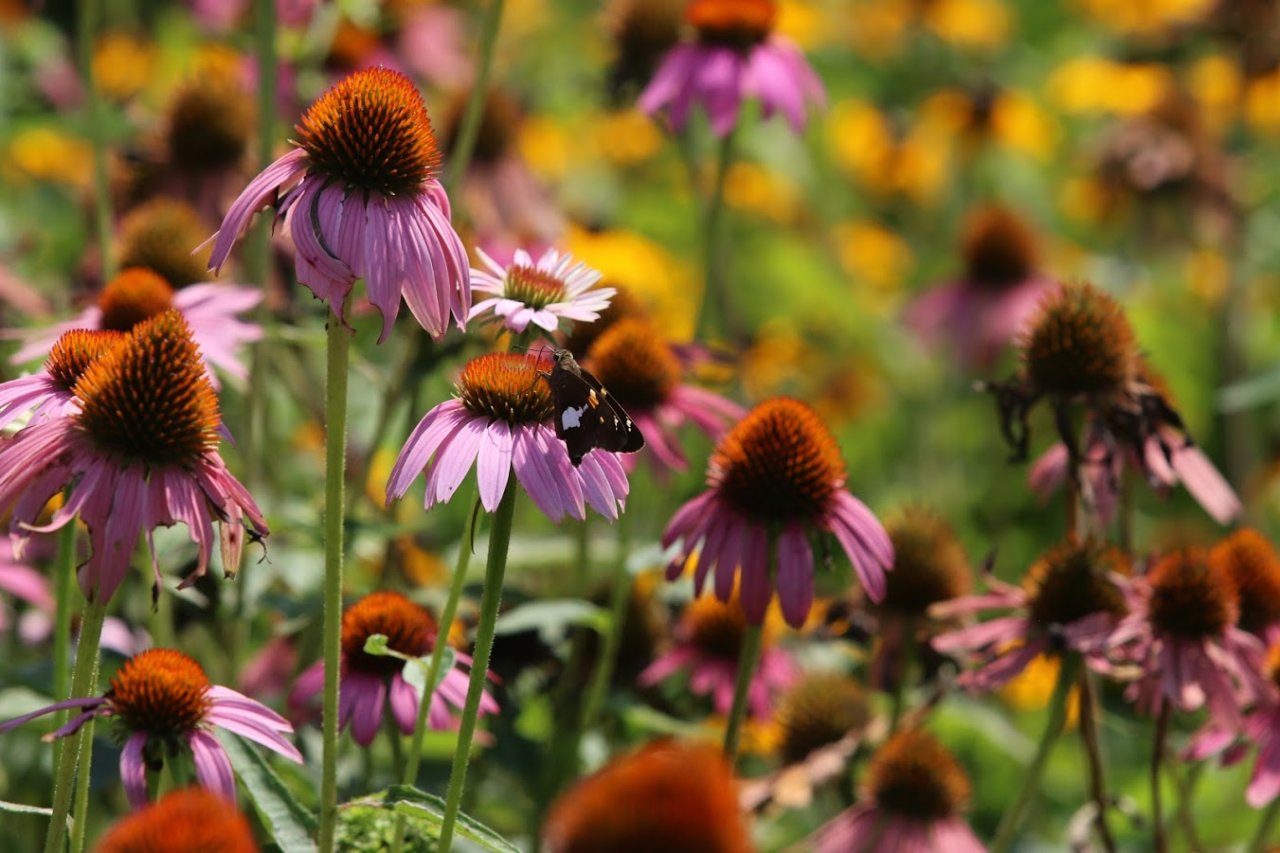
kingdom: Animalia
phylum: Arthropoda
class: Insecta
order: Lepidoptera
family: Hesperiidae
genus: Epargyreus
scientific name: Epargyreus clarus
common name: Silver-spotted Skipper
